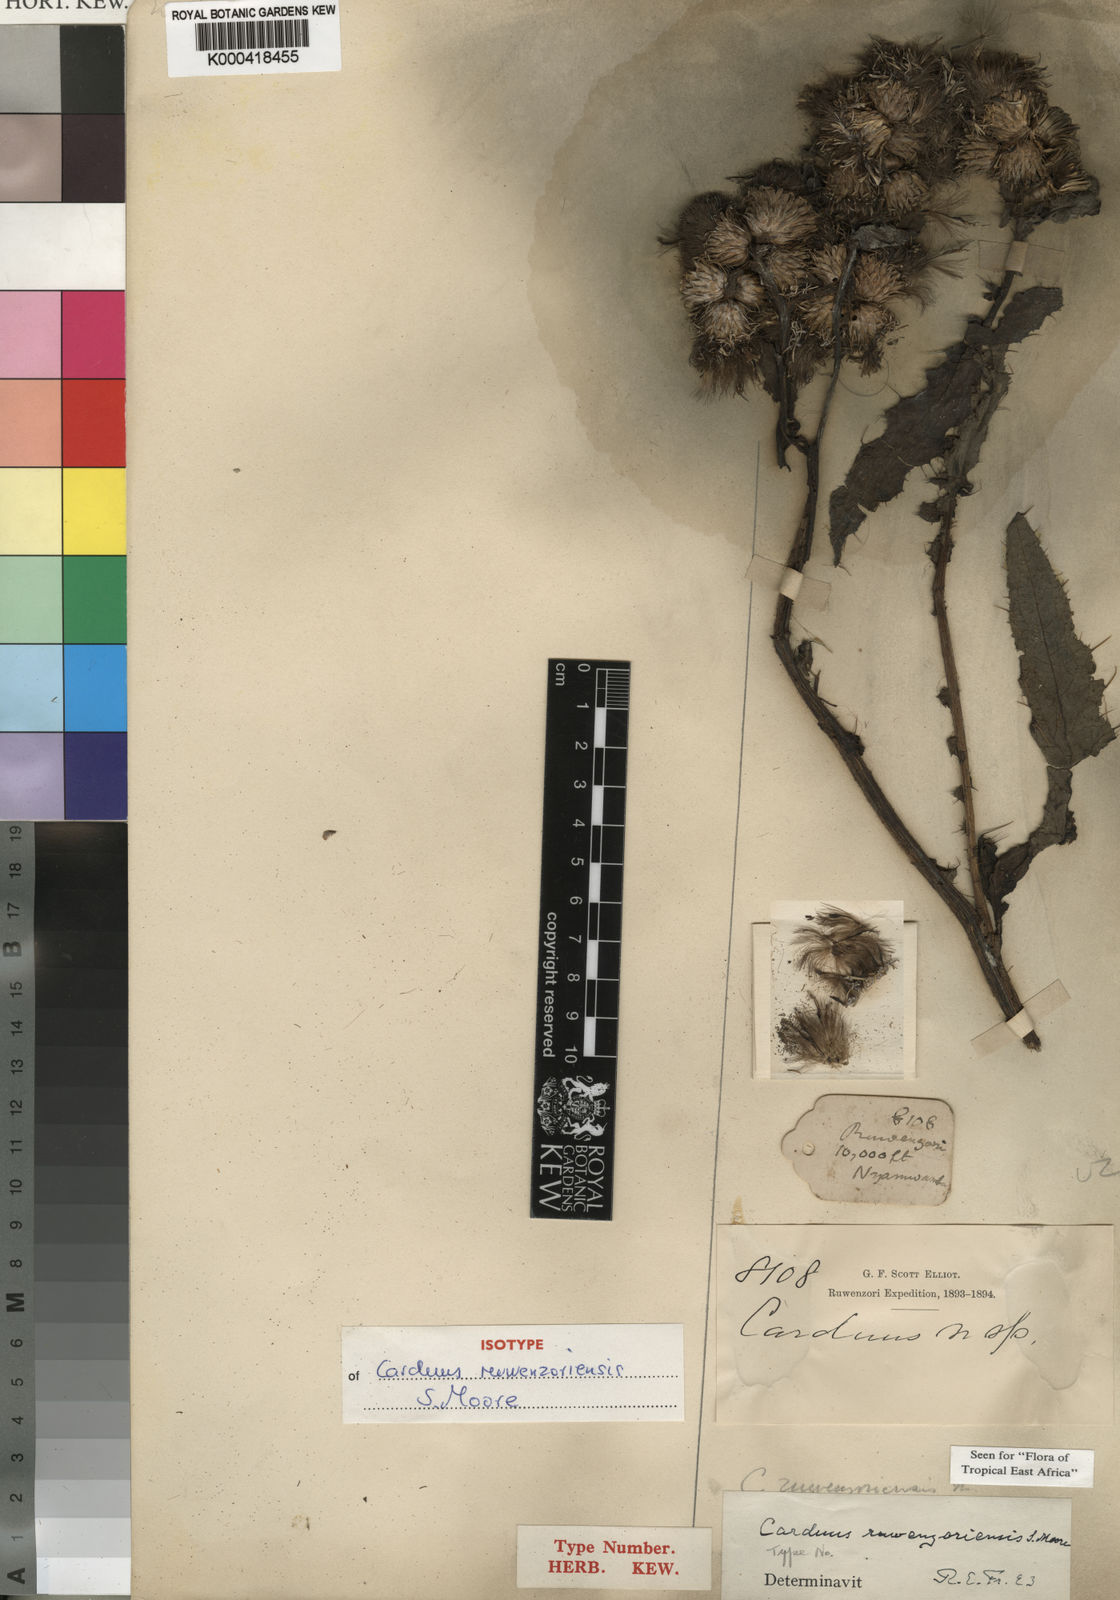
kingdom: Plantae
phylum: Tracheophyta
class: Magnoliopsida
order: Asterales
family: Asteraceae
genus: Carduus
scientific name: Carduus ruwenzoriensis
